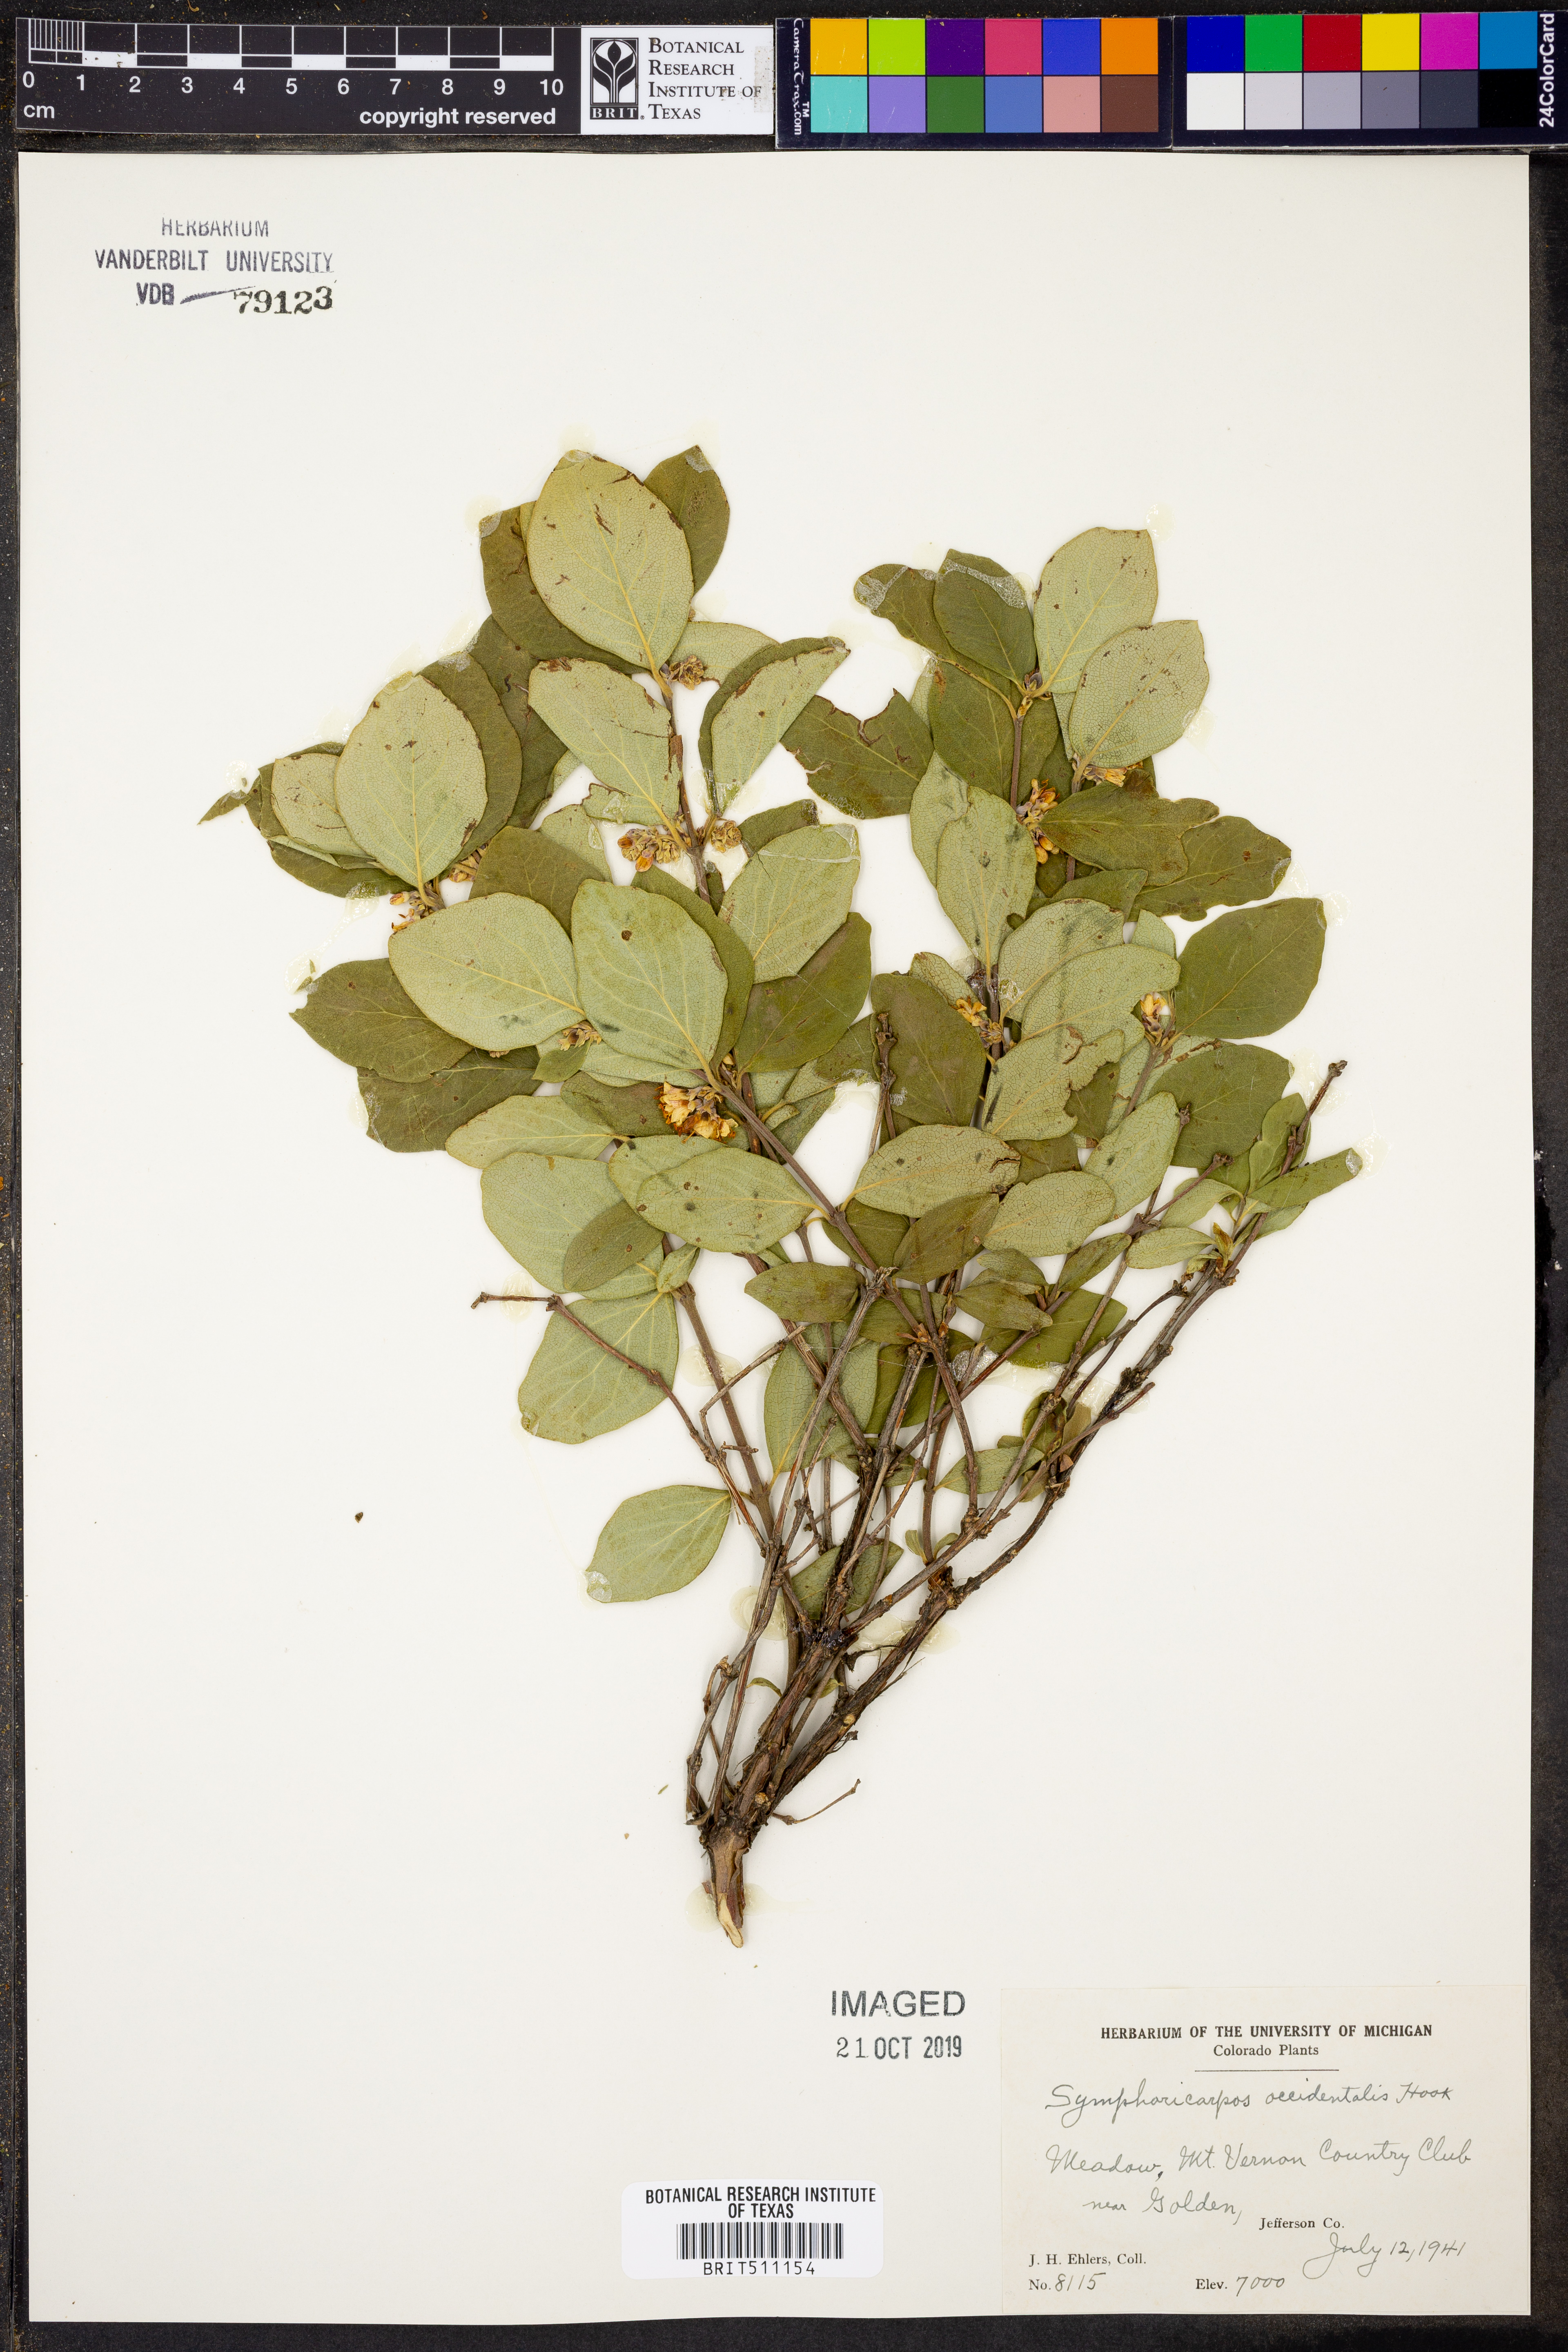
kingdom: Plantae
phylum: Tracheophyta
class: Magnoliopsida
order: Dipsacales
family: Caprifoliaceae
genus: Symphoricarpos
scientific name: Symphoricarpos occidentalis
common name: Wolfberry
